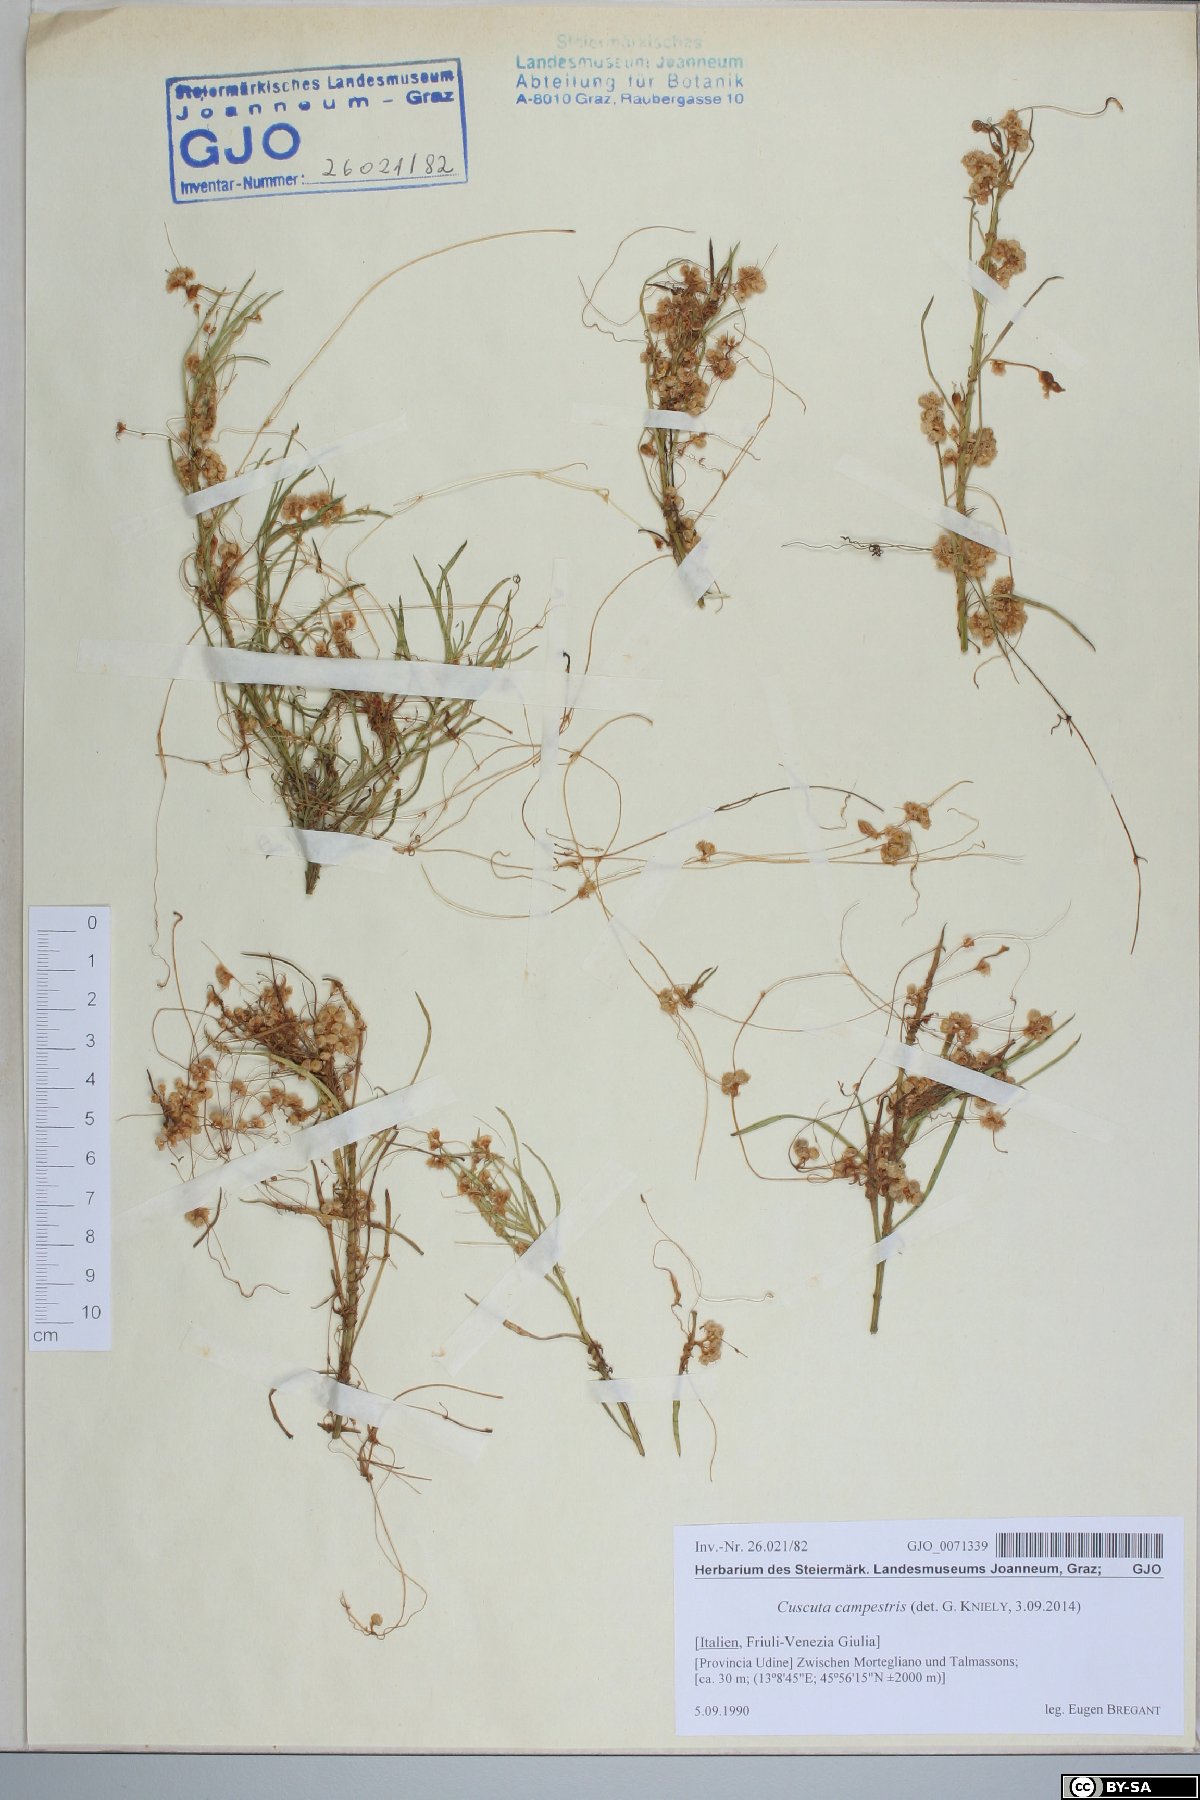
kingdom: Plantae
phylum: Tracheophyta
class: Magnoliopsida
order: Solanales
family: Convolvulaceae
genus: Cuscuta
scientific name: Cuscuta campestris
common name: Yellow dodder
